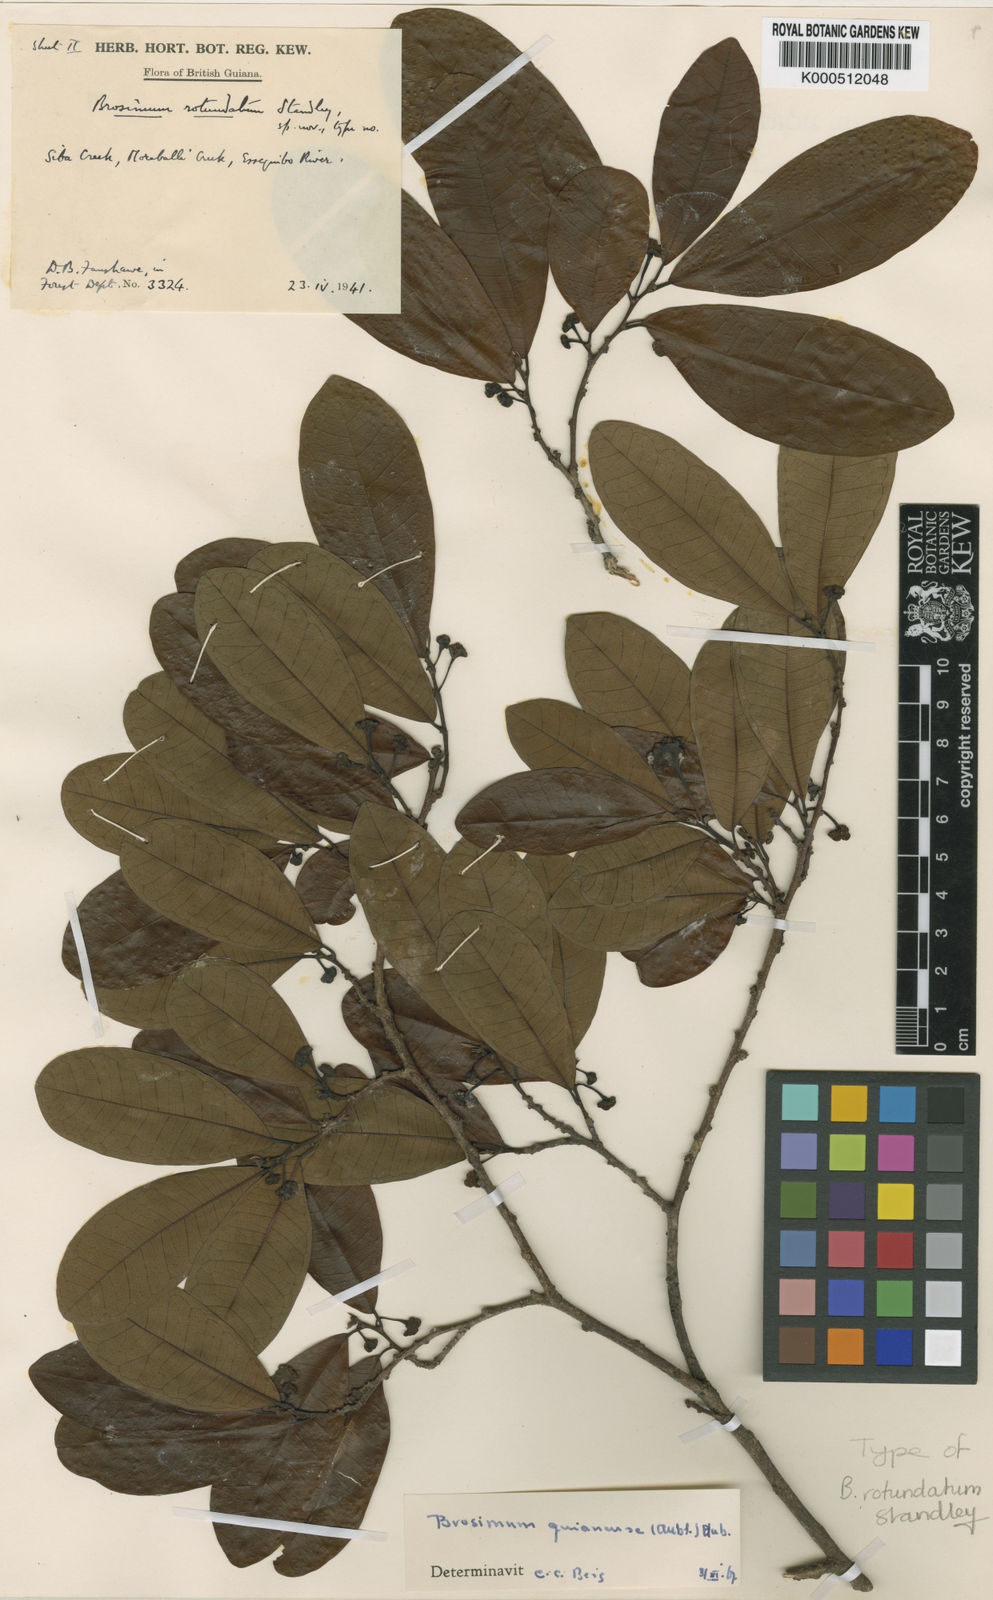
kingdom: Plantae
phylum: Tracheophyta
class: Magnoliopsida
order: Rosales
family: Moraceae
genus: Brosimum
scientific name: Brosimum
